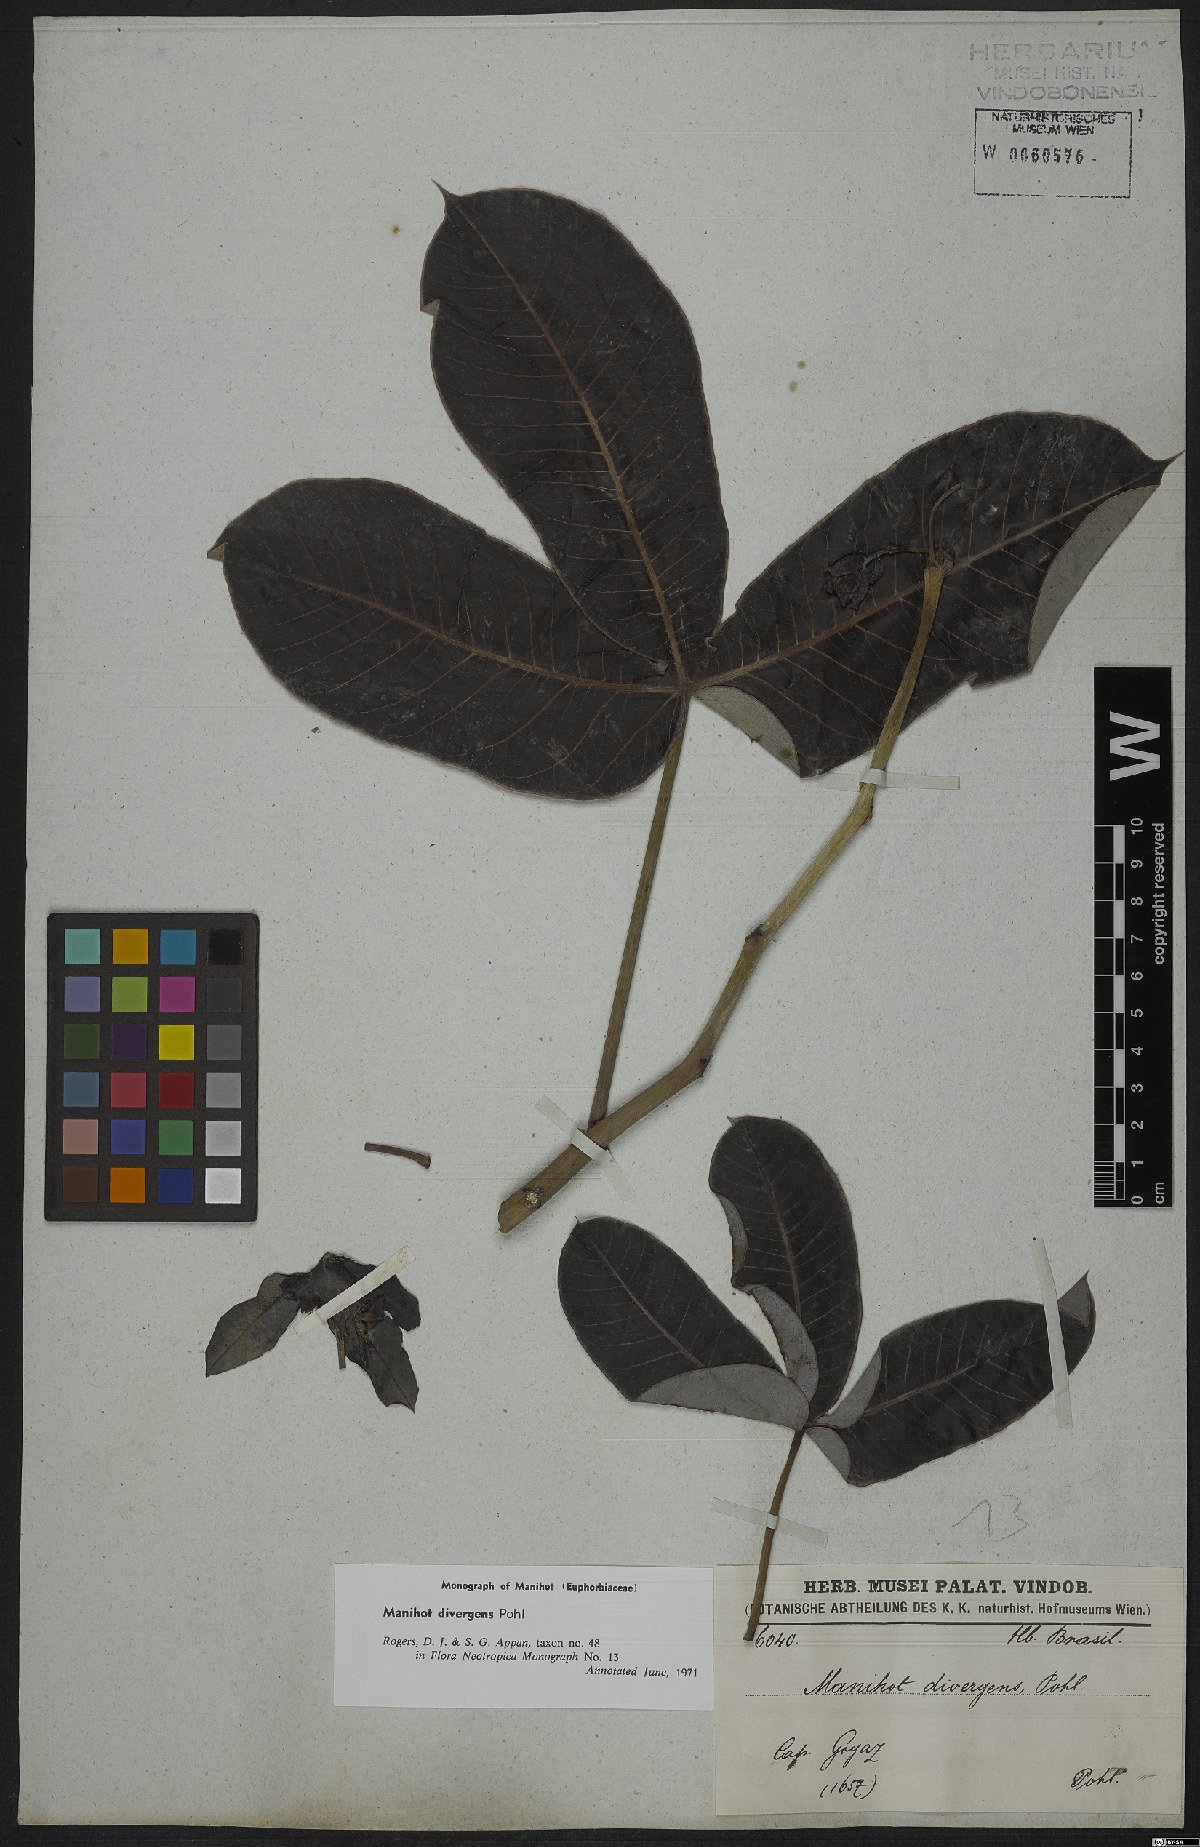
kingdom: Plantae
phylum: Tracheophyta
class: Magnoliopsida
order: Malpighiales
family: Euphorbiaceae
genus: Manihot
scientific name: Manihot divergens
